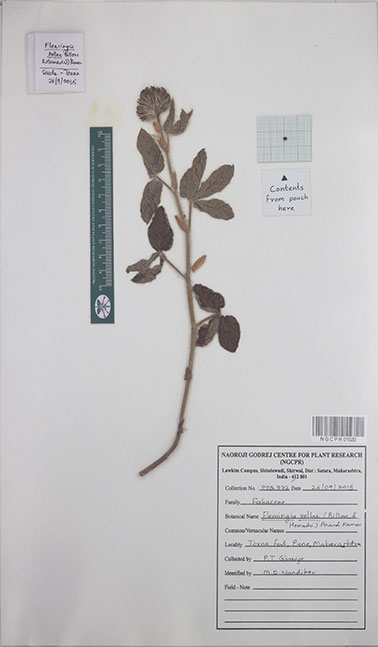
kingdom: Plantae
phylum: Tracheophyta
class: Magnoliopsida
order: Fabales
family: Fabaceae
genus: Flemingia
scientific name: Flemingia rollae
